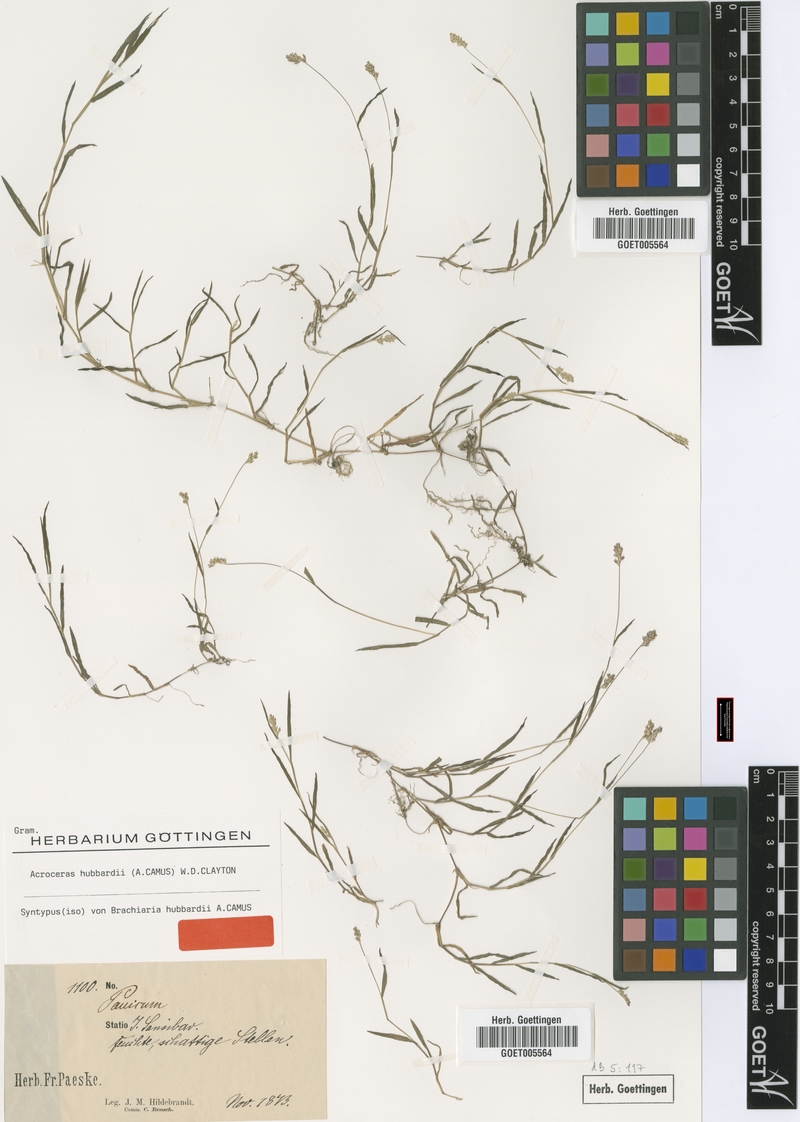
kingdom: Plantae
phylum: Tracheophyta
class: Liliopsida
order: Poales
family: Poaceae
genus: Acroceras
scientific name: Acroceras hubbardii
